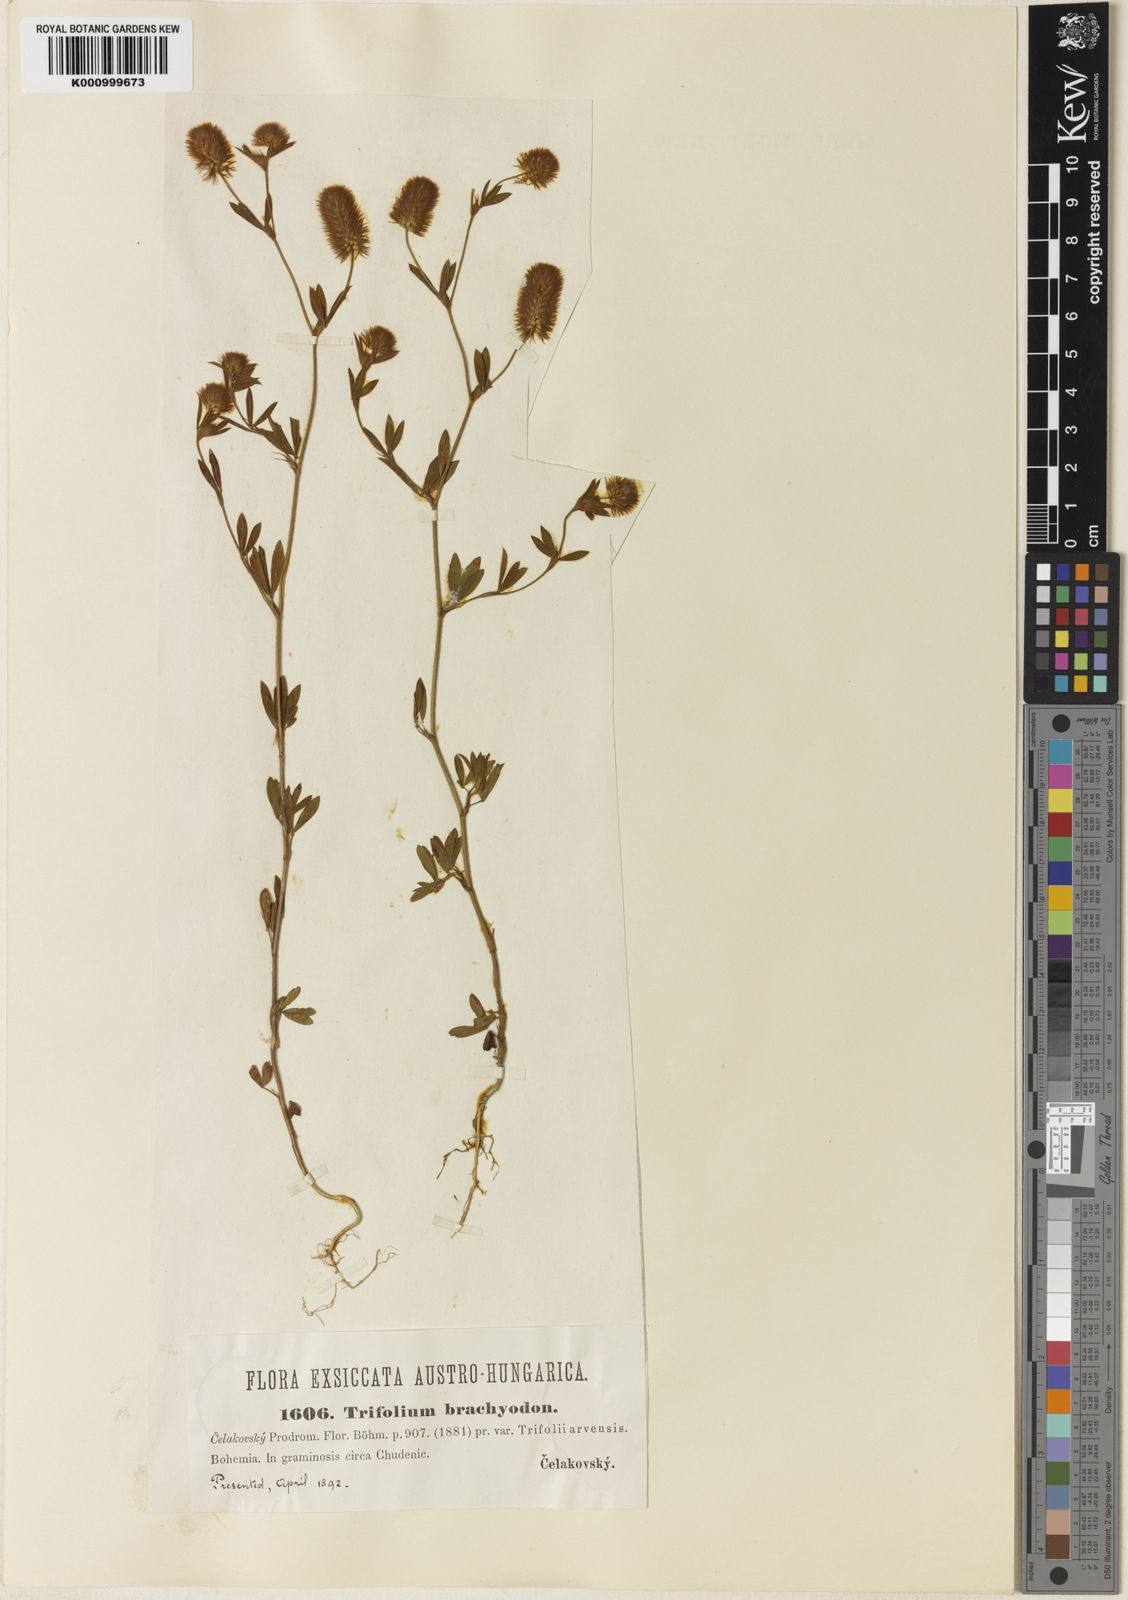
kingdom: Plantae
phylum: Tracheophyta
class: Magnoliopsida
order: Fabales
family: Fabaceae
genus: Trifolium
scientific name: Trifolium
